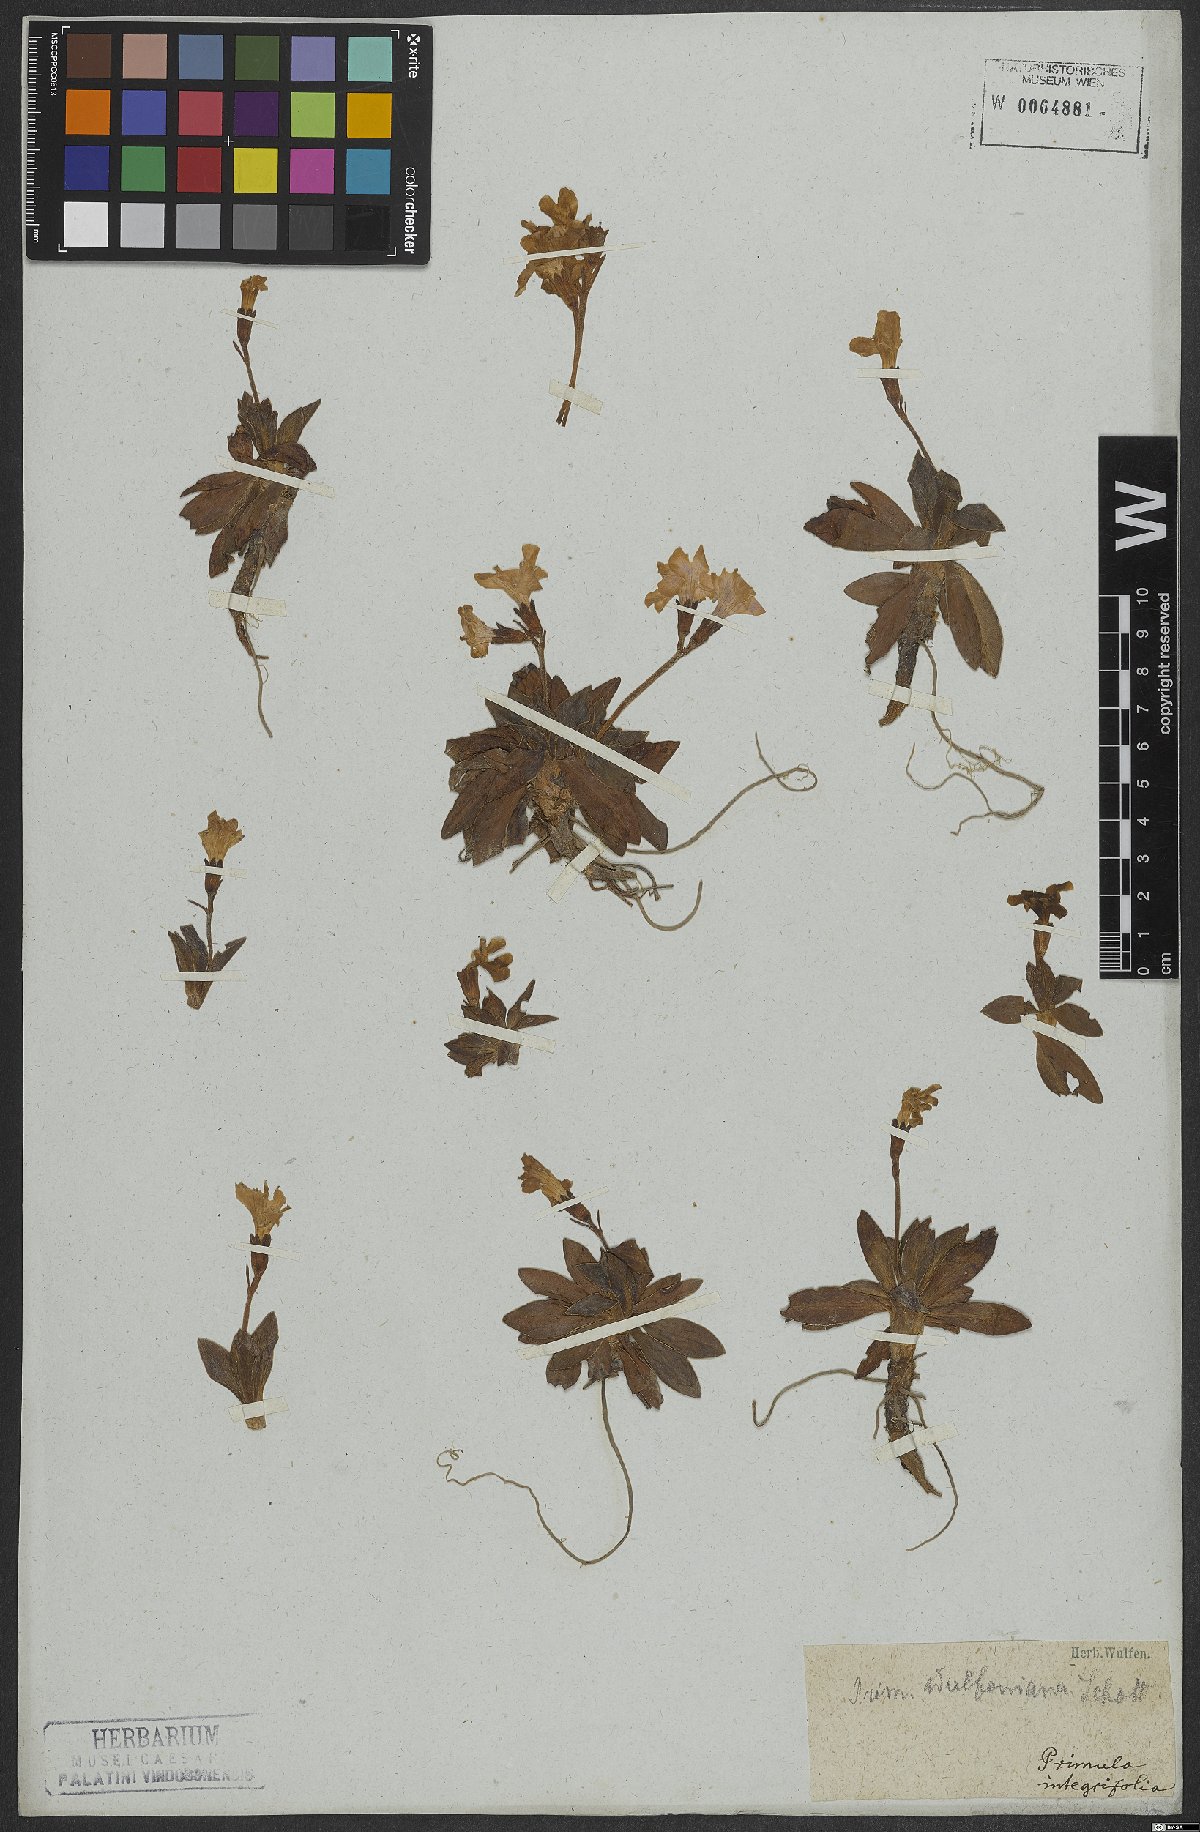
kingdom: Plantae
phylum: Tracheophyta
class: Magnoliopsida
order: Ericales
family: Primulaceae
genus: Primula
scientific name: Primula wulfeniana
